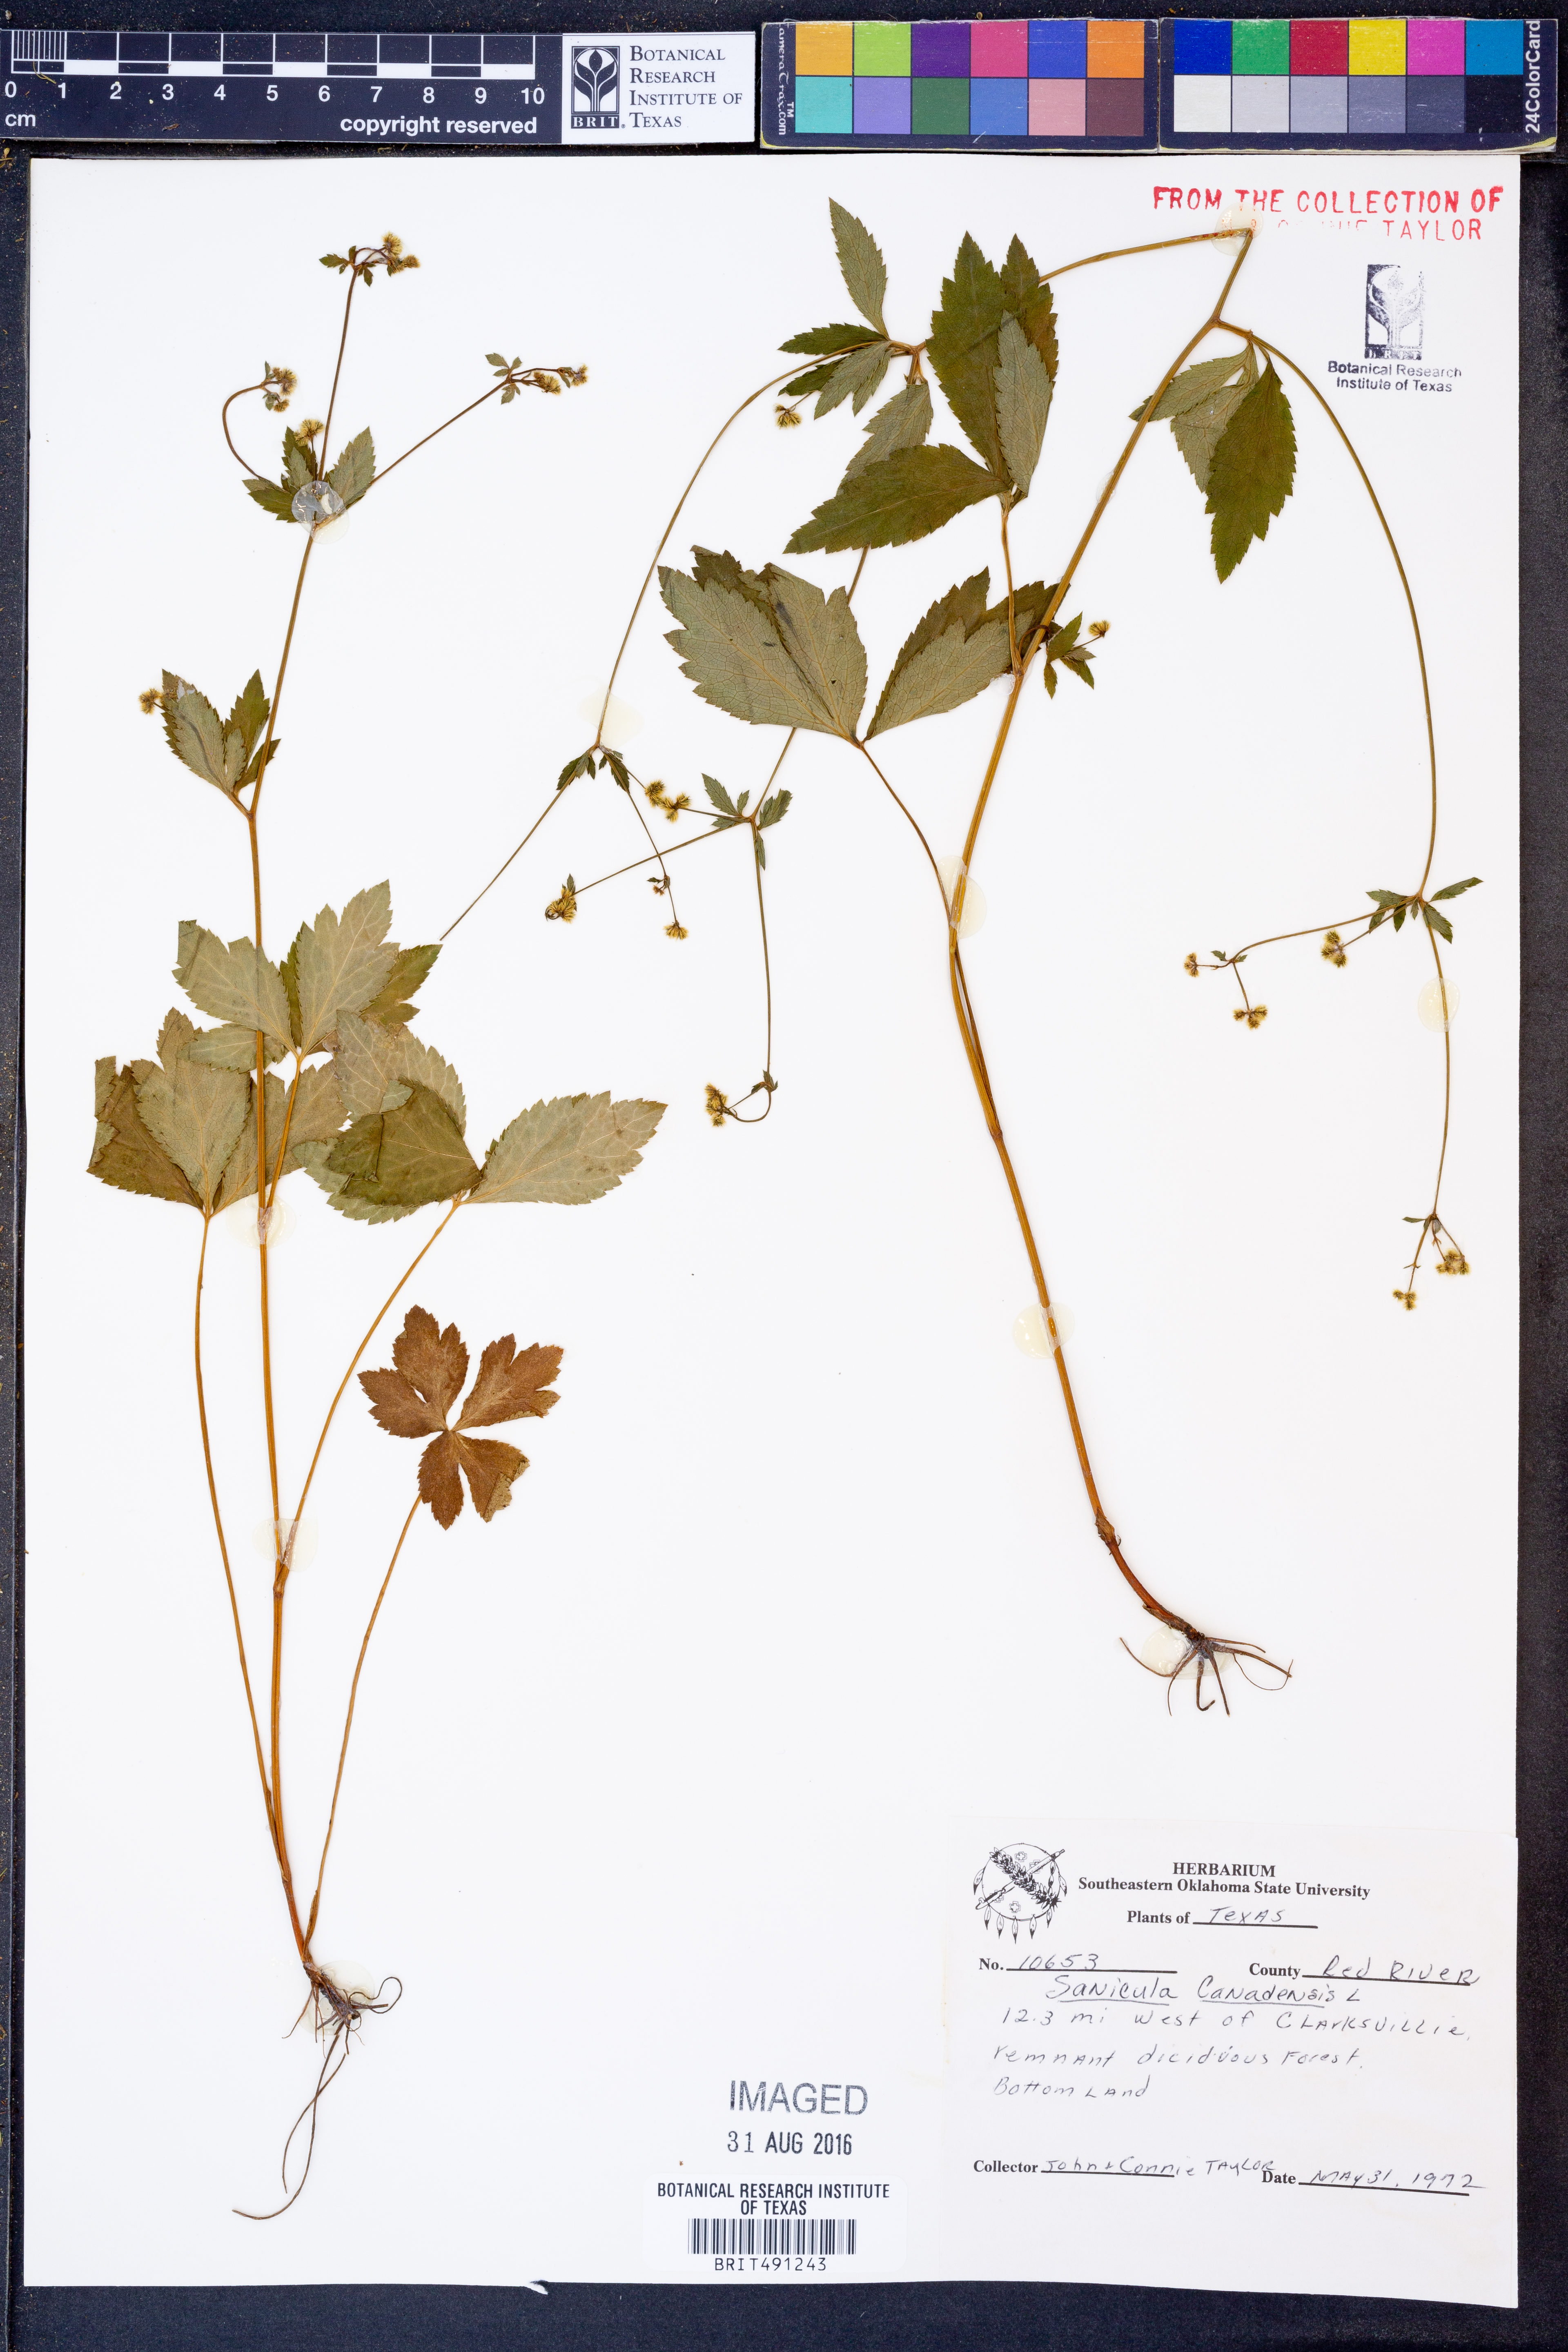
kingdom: Plantae
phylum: Tracheophyta
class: Magnoliopsida
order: Apiales
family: Apiaceae
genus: Sanicula
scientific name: Sanicula canadensis
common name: Canada sanicle
